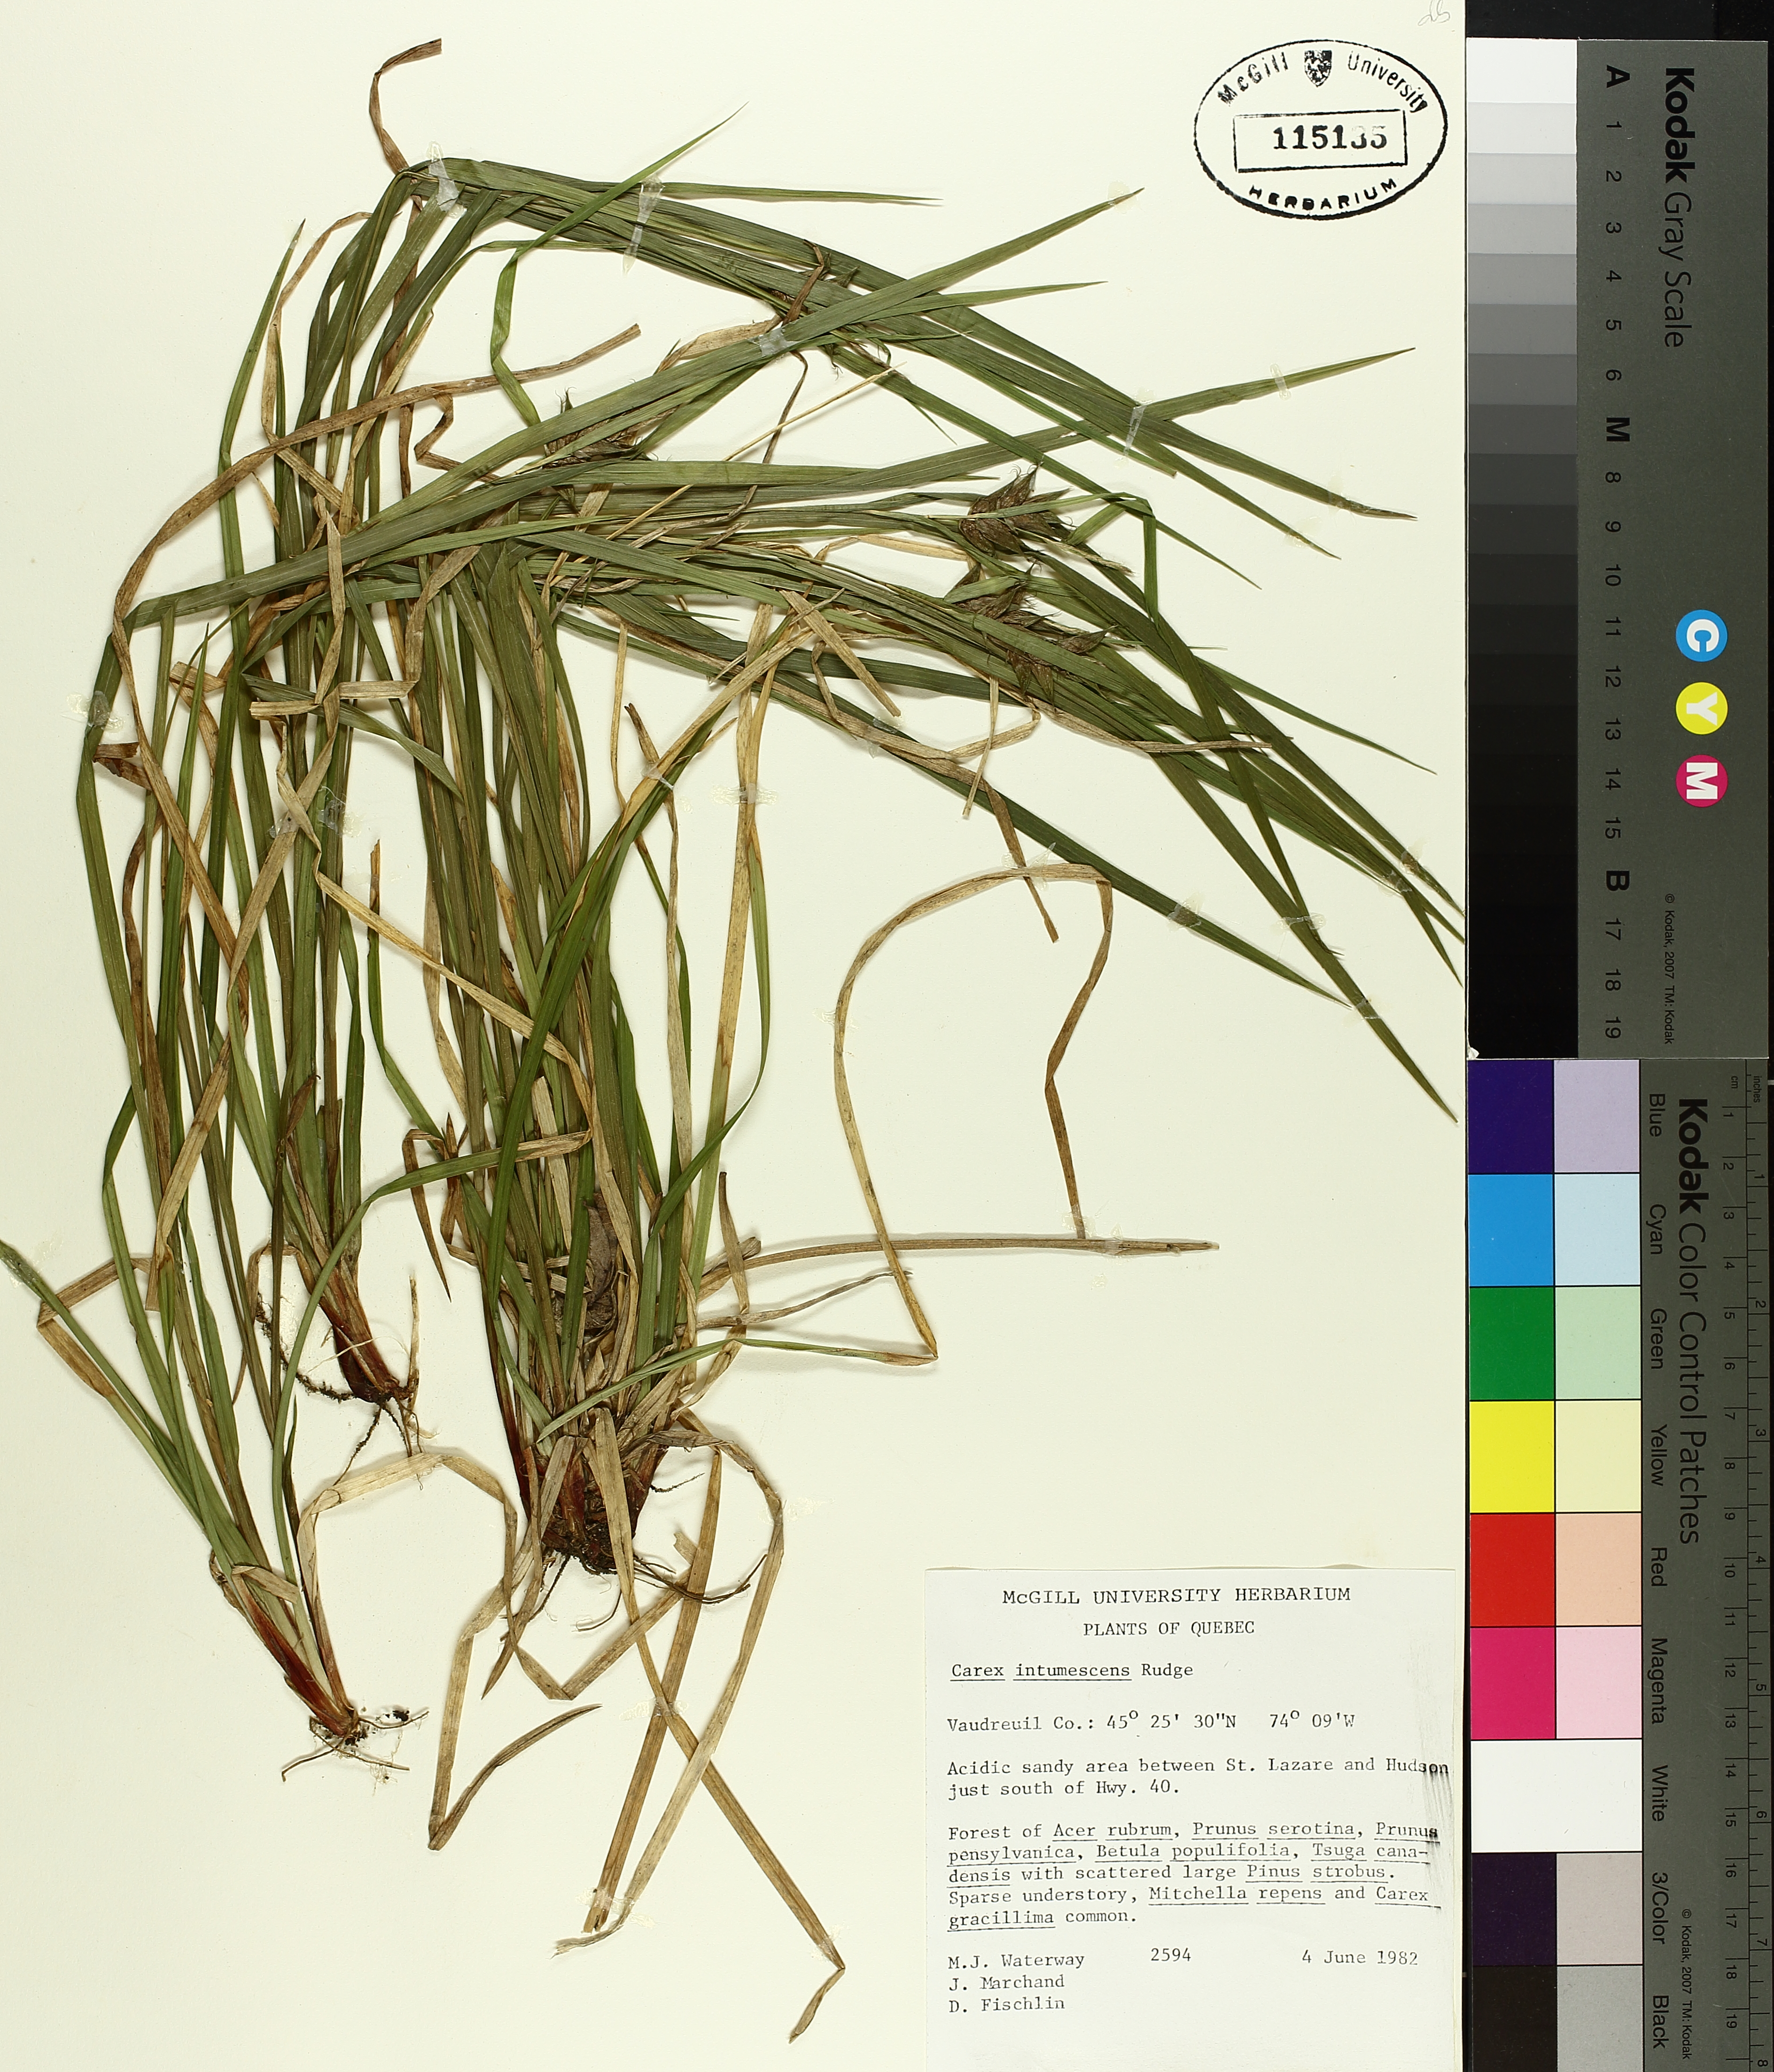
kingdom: Plantae
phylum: Tracheophyta
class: Liliopsida
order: Poales
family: Cyperaceae
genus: Carex
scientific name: Carex intumescens
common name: Greater bladder sedge
